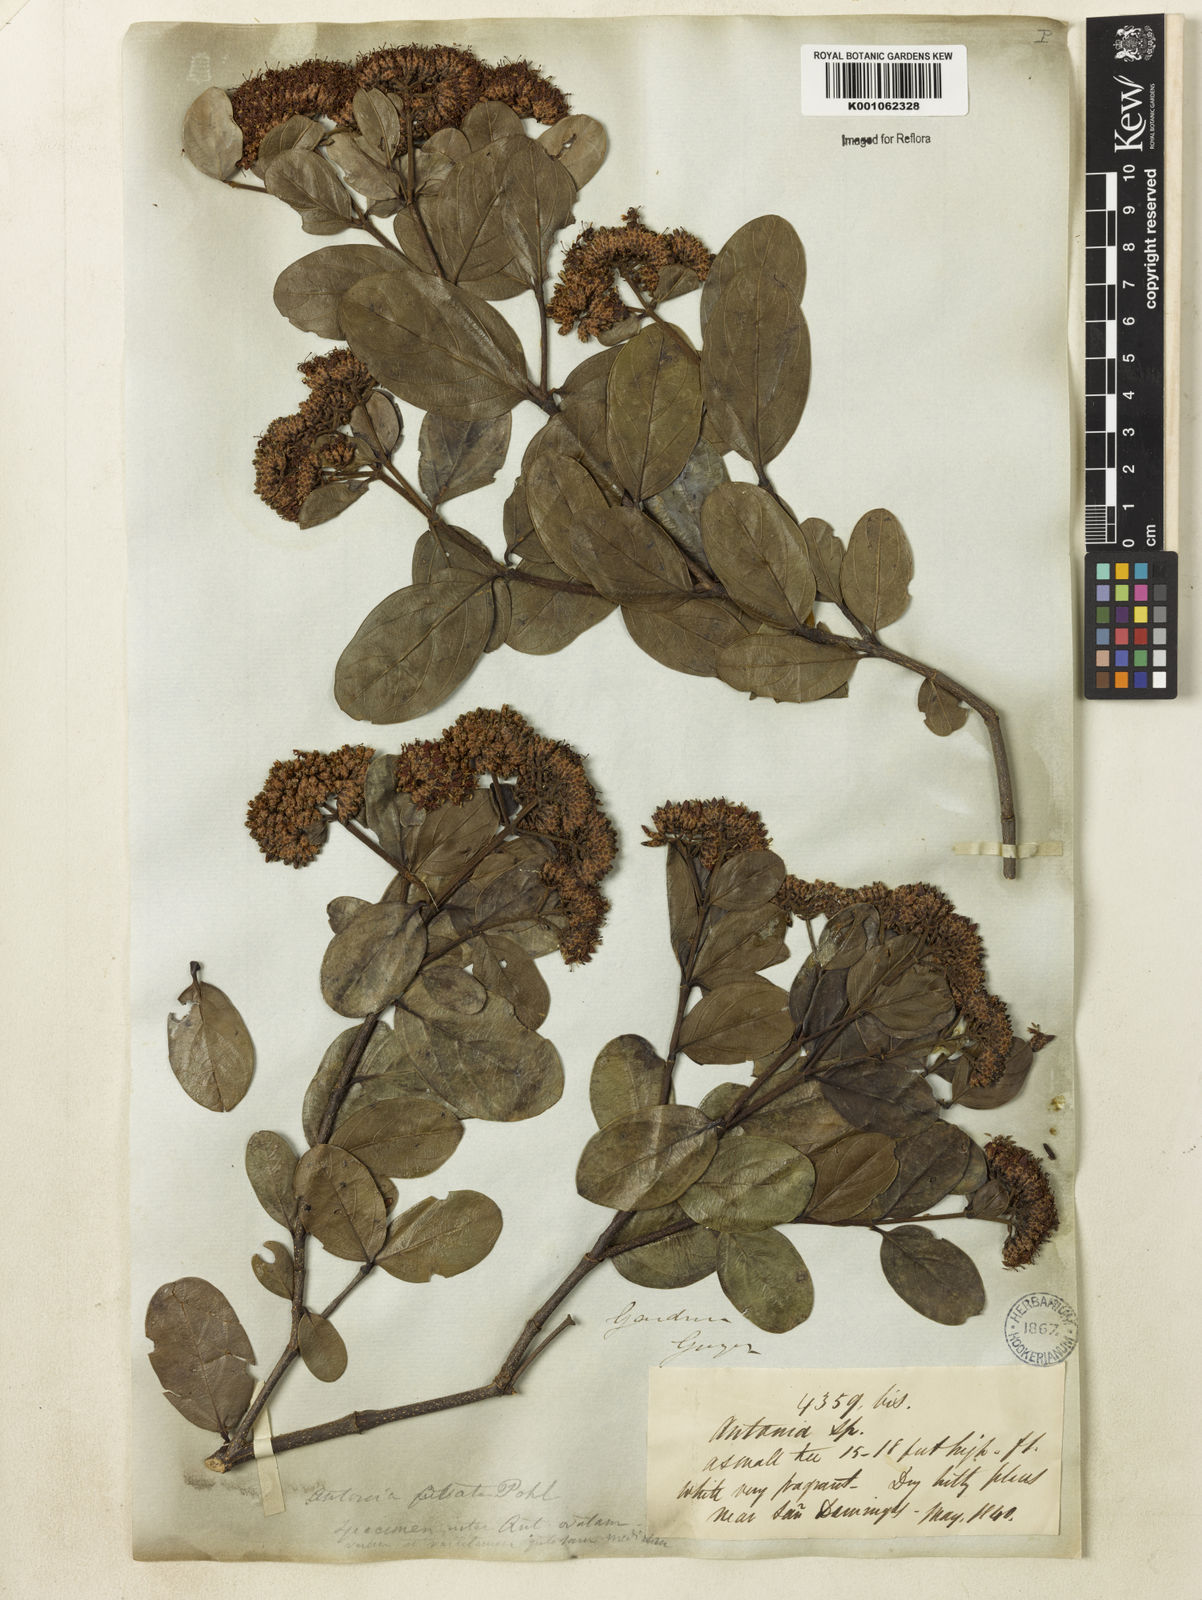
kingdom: Plantae
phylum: Tracheophyta
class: Magnoliopsida
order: Gentianales
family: Loganiaceae
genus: Antonia
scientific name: Antonia ovata
